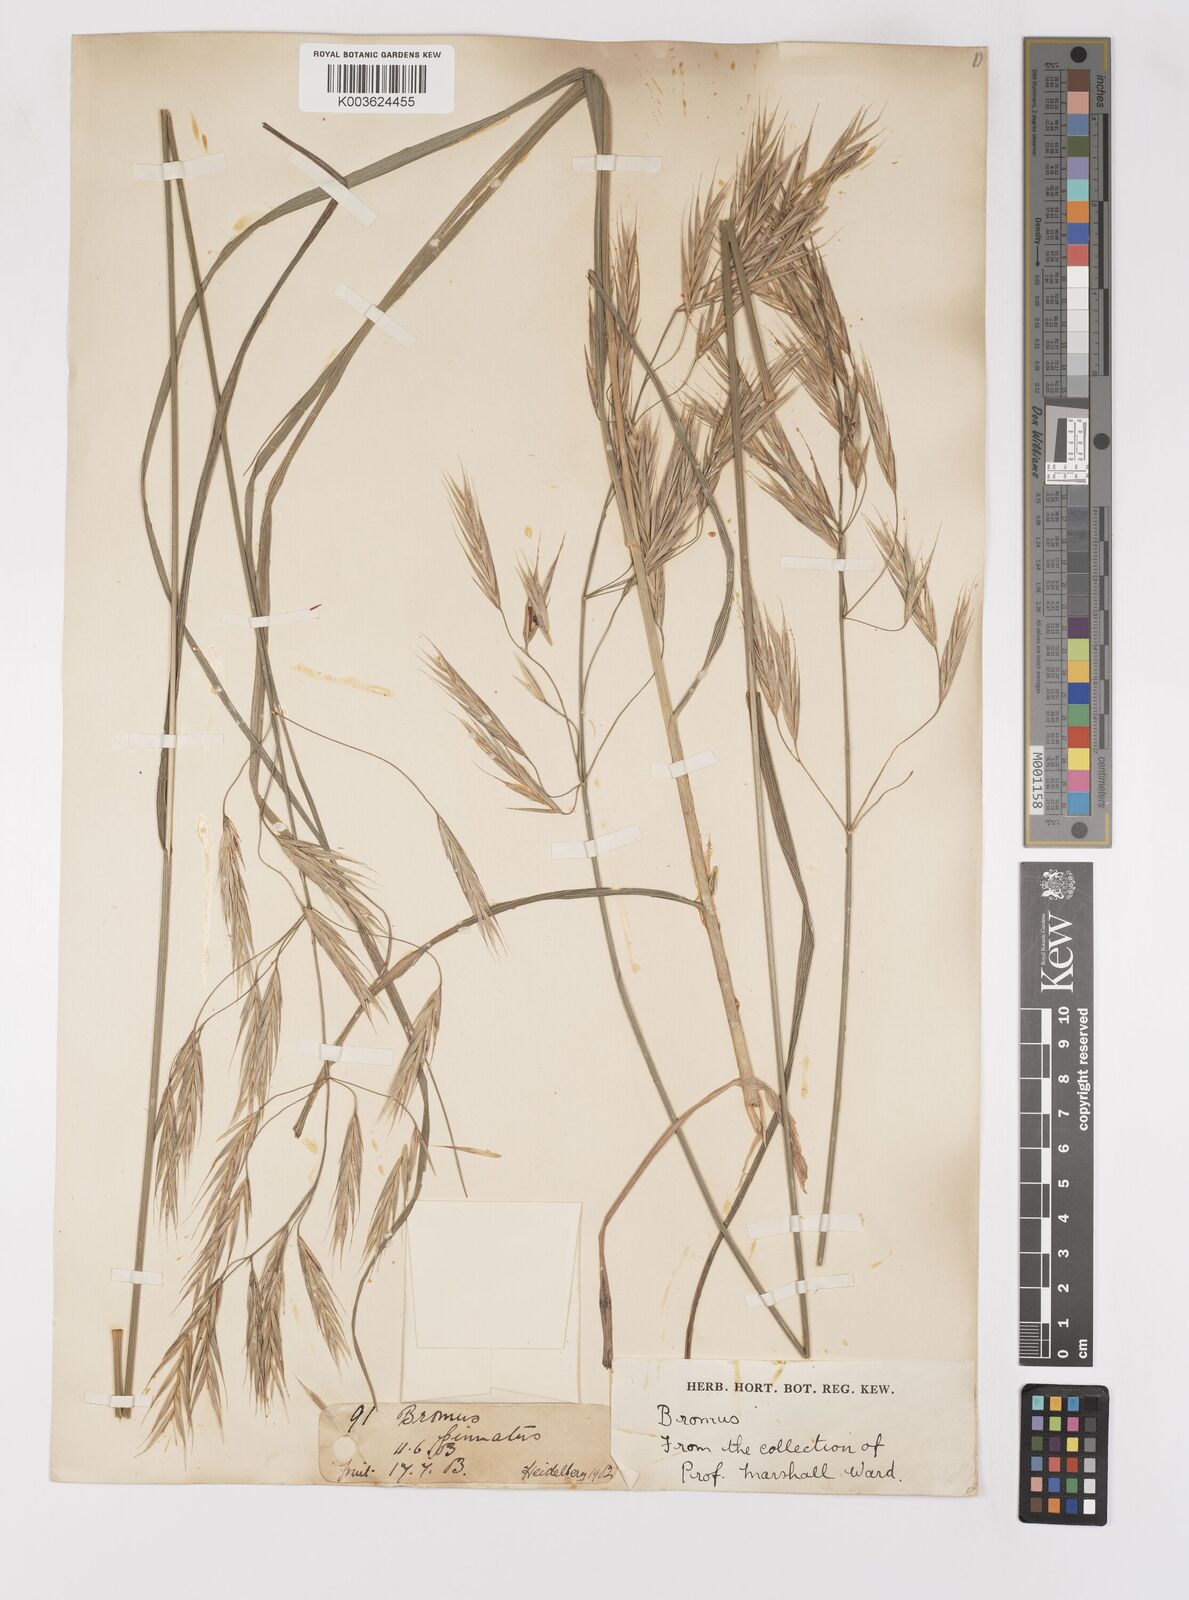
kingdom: Plantae
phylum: Tracheophyta
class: Liliopsida
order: Poales
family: Poaceae
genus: Bromus
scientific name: Bromus
